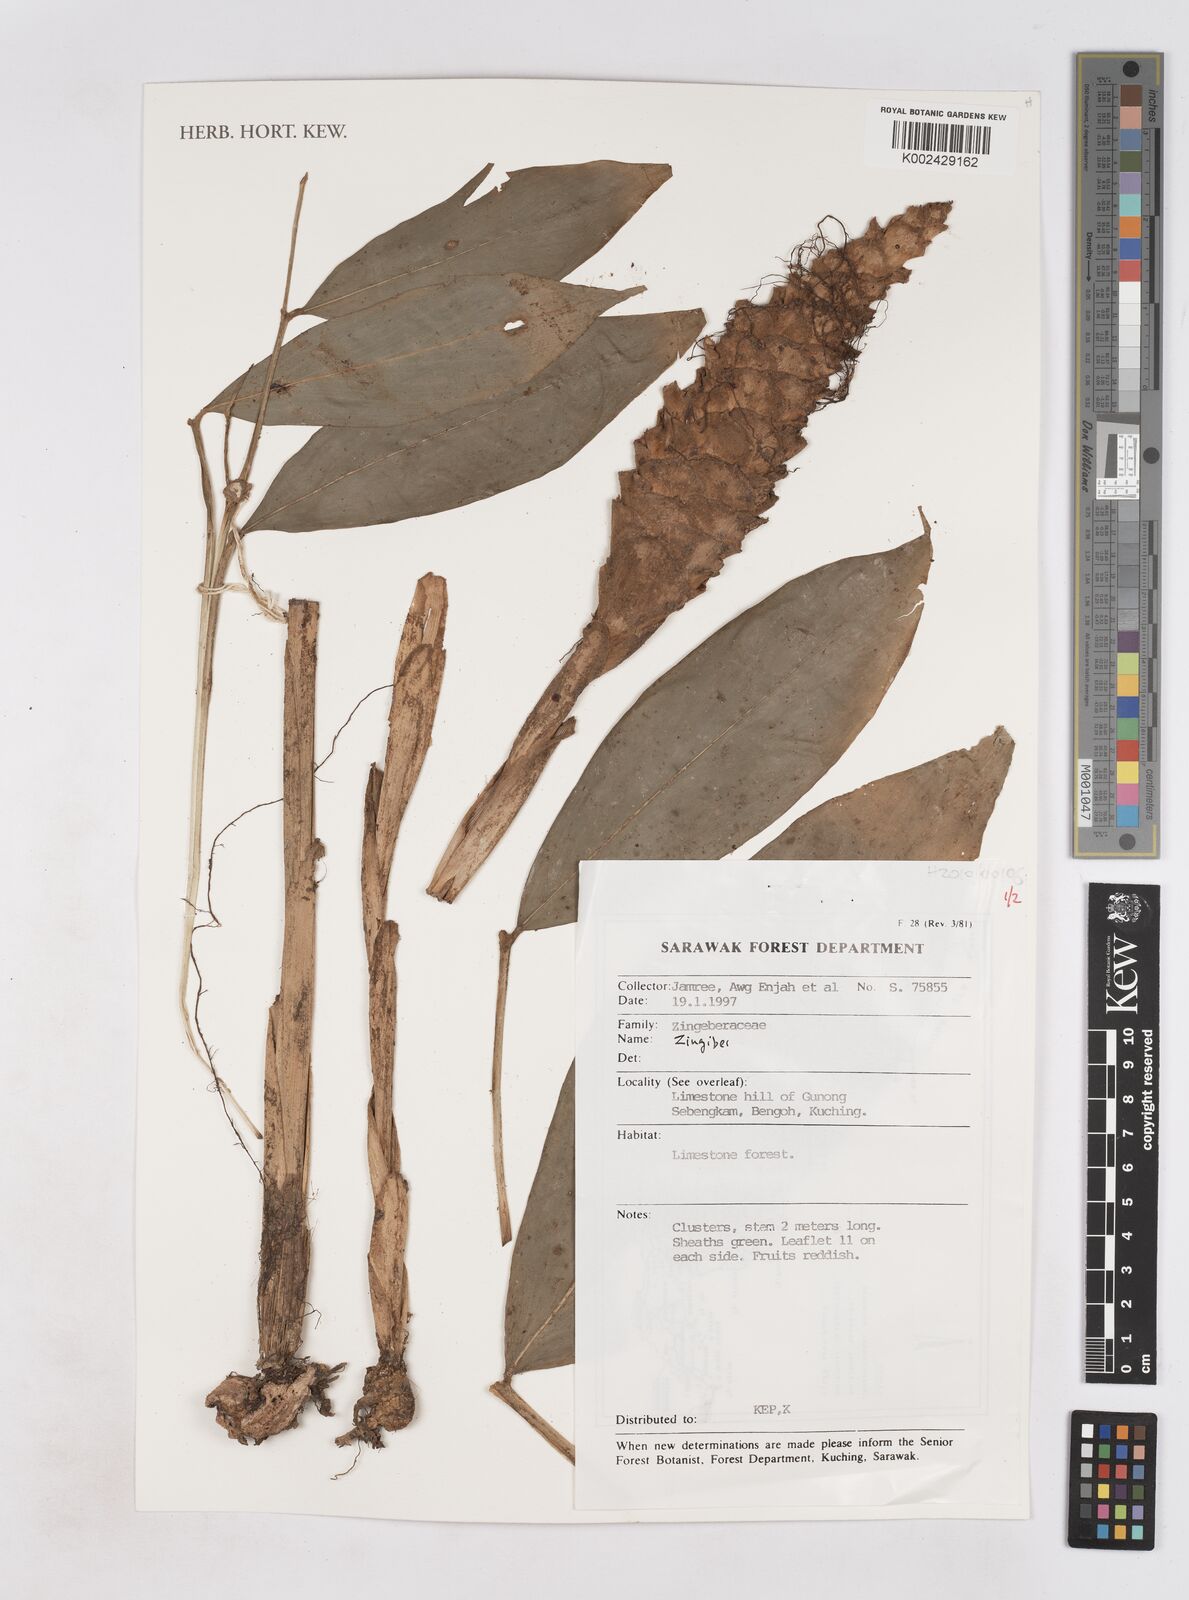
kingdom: Plantae
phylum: Tracheophyta
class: Liliopsida
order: Zingiberales
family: Zingiberaceae
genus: Zingiber
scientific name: Zingiber
